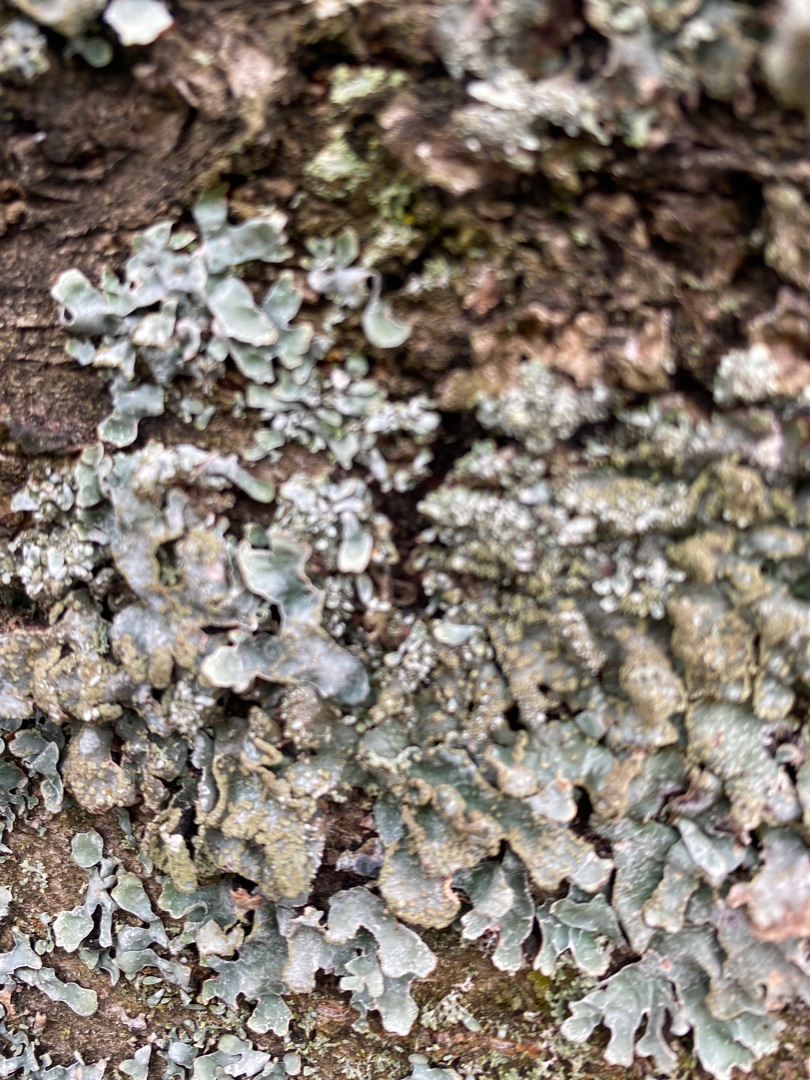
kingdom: Fungi
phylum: Ascomycota
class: Lecanoromycetes
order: Lecanorales
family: Parmeliaceae
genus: Parmelia
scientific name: Parmelia sulcata
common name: Rynket skållav
